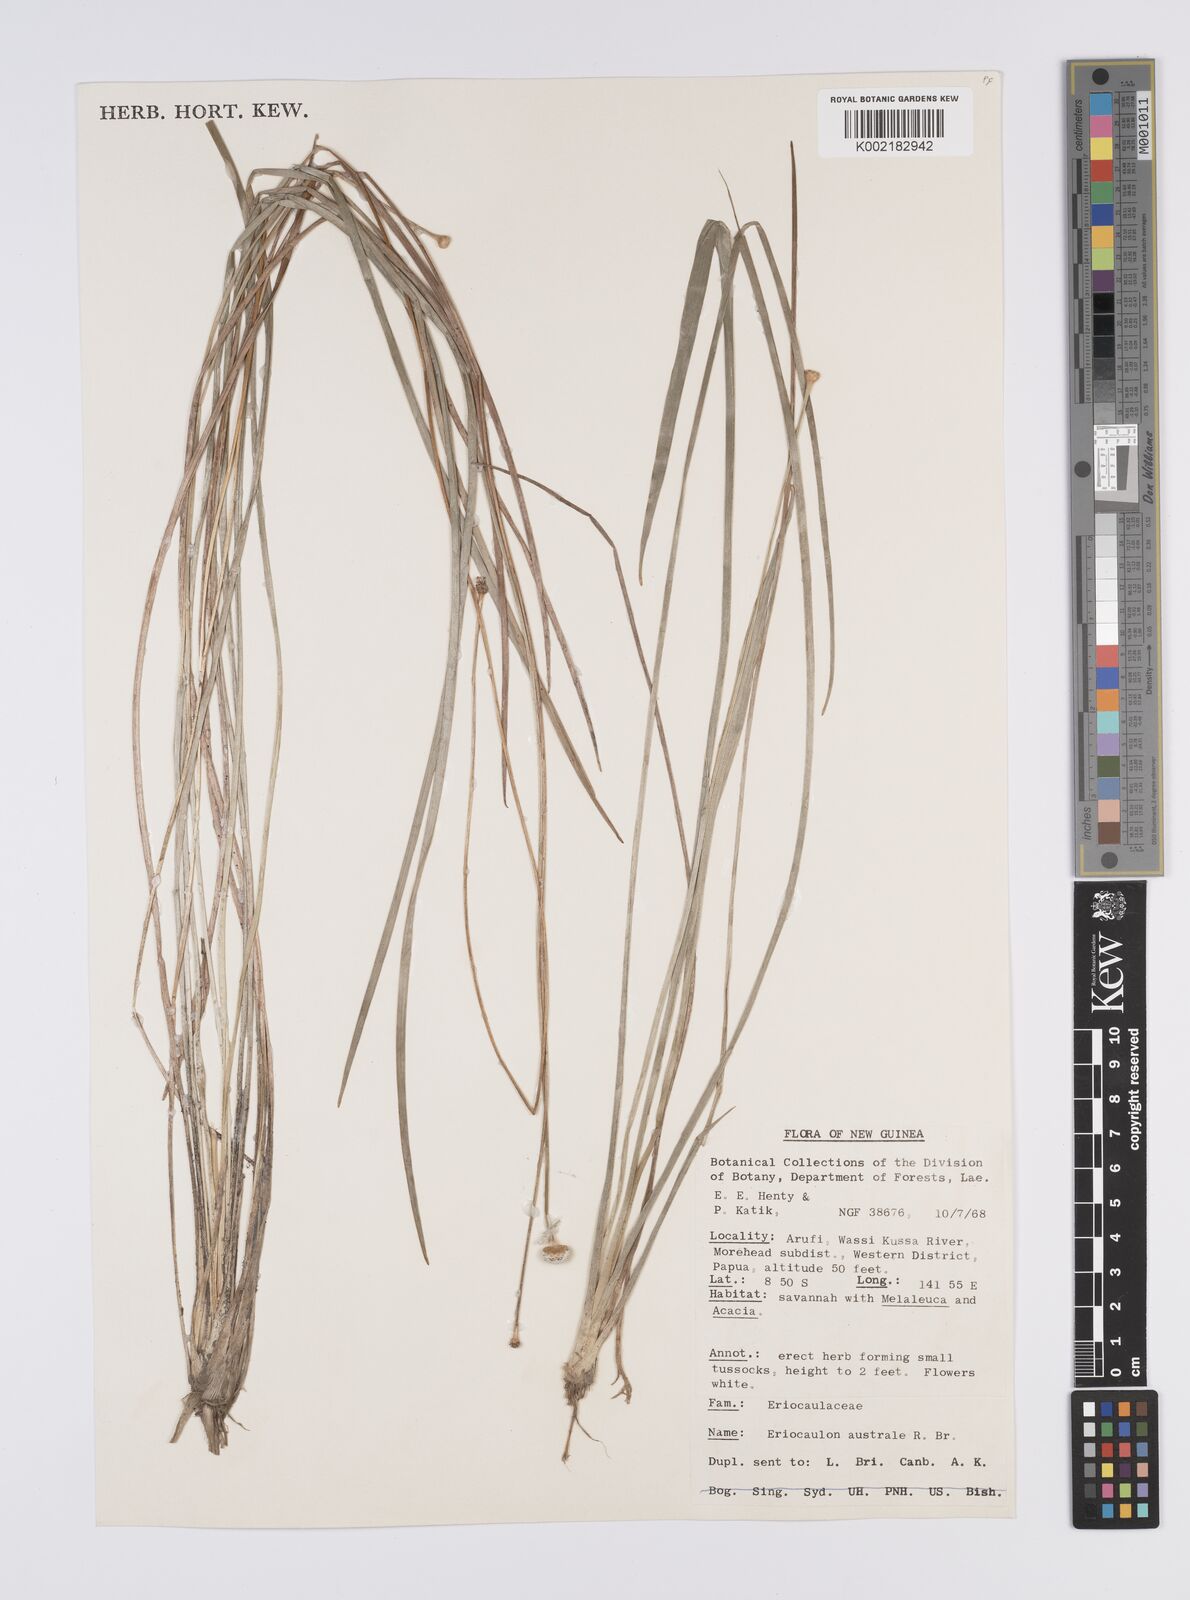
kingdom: Plantae
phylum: Tracheophyta
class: Liliopsida
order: Poales
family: Eriocaulaceae
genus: Eriocaulon
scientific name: Eriocaulon australe
